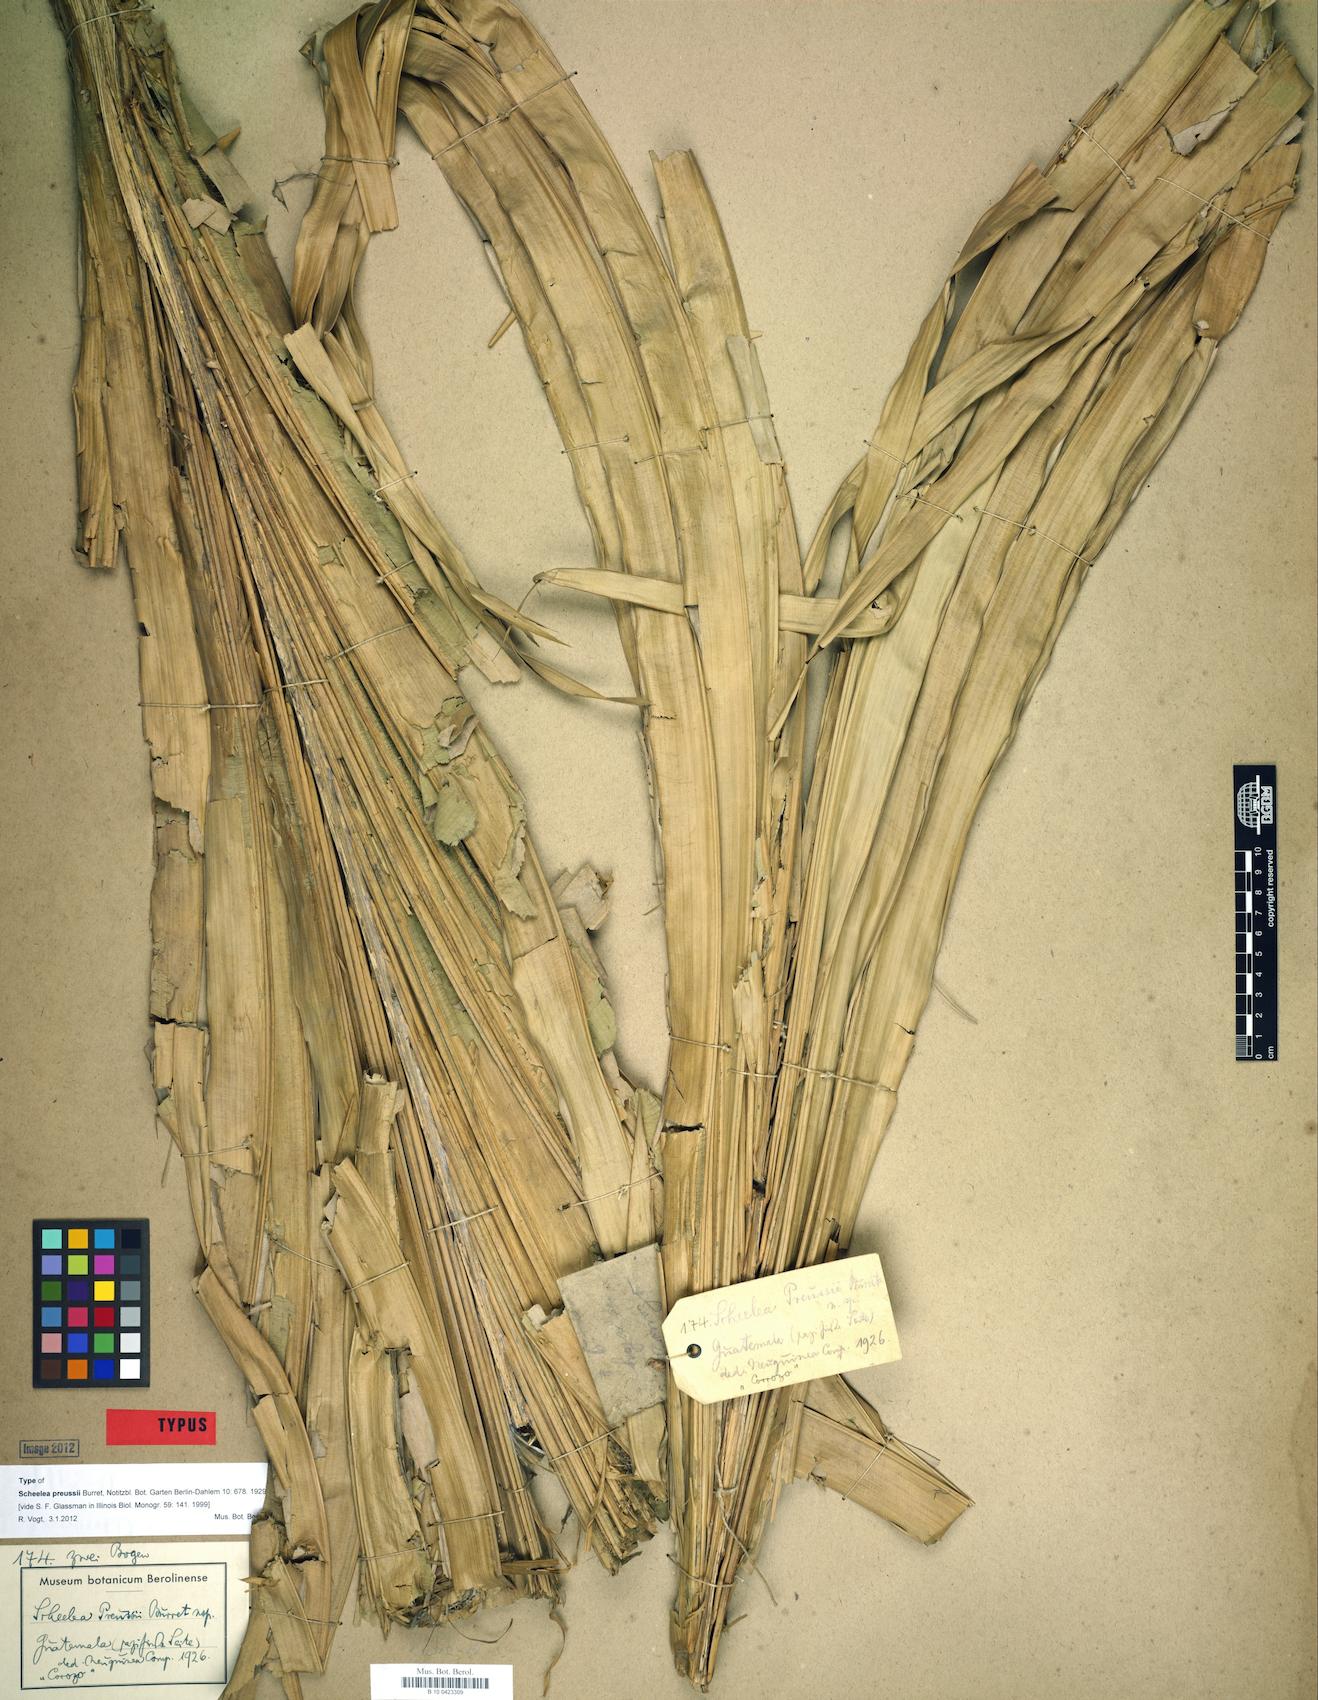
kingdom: Plantae
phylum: Tracheophyta
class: Liliopsida
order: Arecales
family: Arecaceae
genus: Attalea
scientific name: Attalea rostrata
